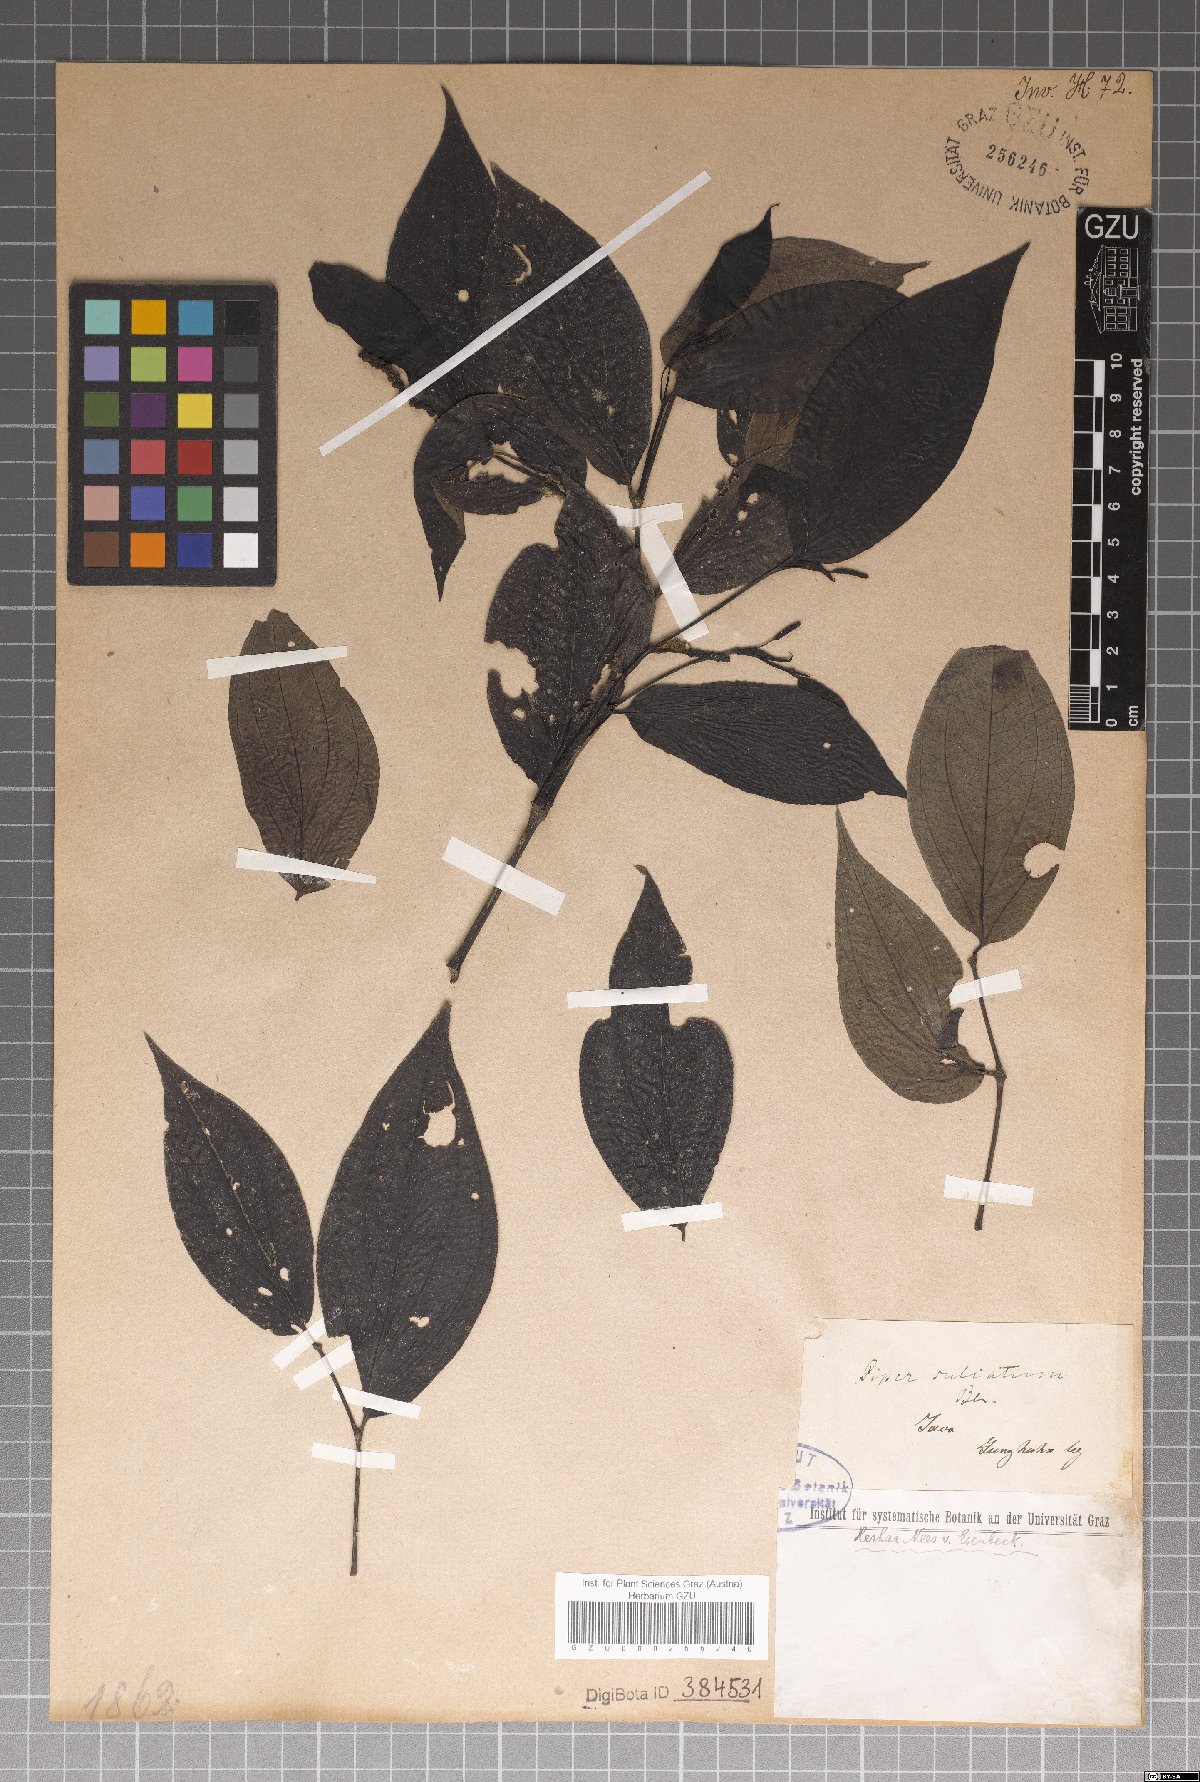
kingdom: Plantae
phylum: Tracheophyta
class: Magnoliopsida
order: Piperales
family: Piperaceae
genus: Piper
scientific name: Piper sulcatum
